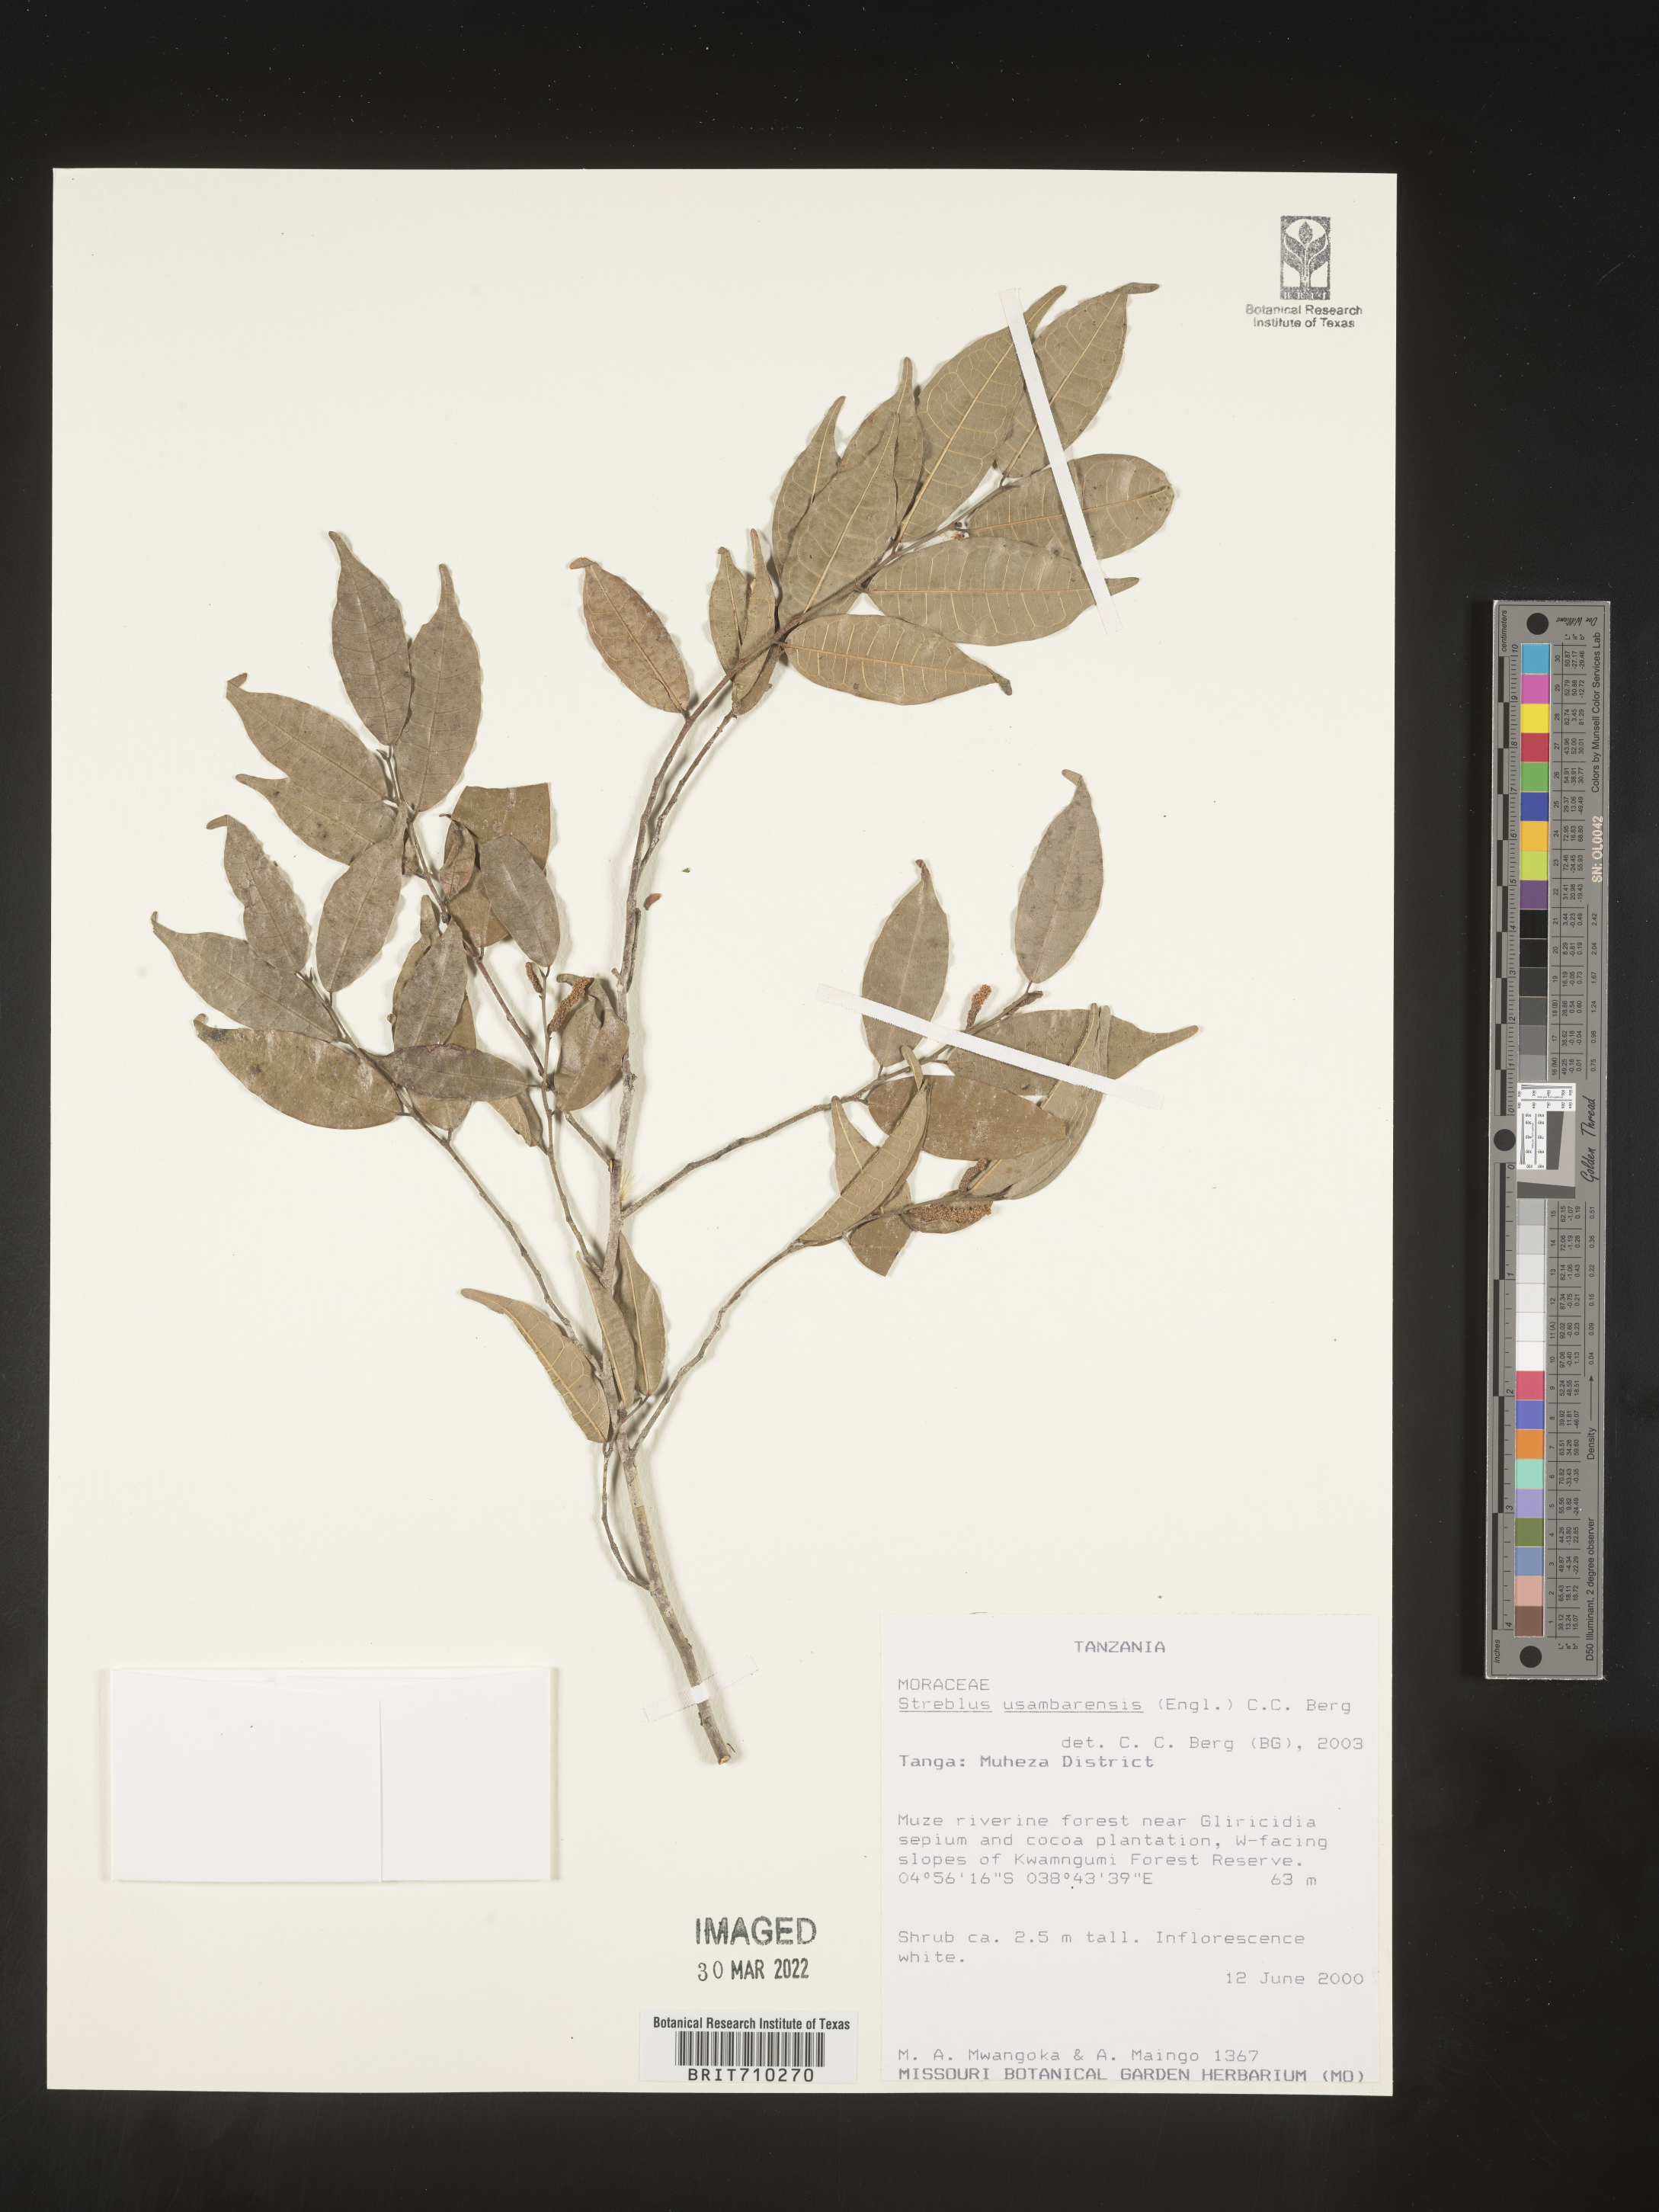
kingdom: Plantae
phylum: Tracheophyta
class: Magnoliopsida
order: Rosales
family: Moraceae
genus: Streblus
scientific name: Streblus
